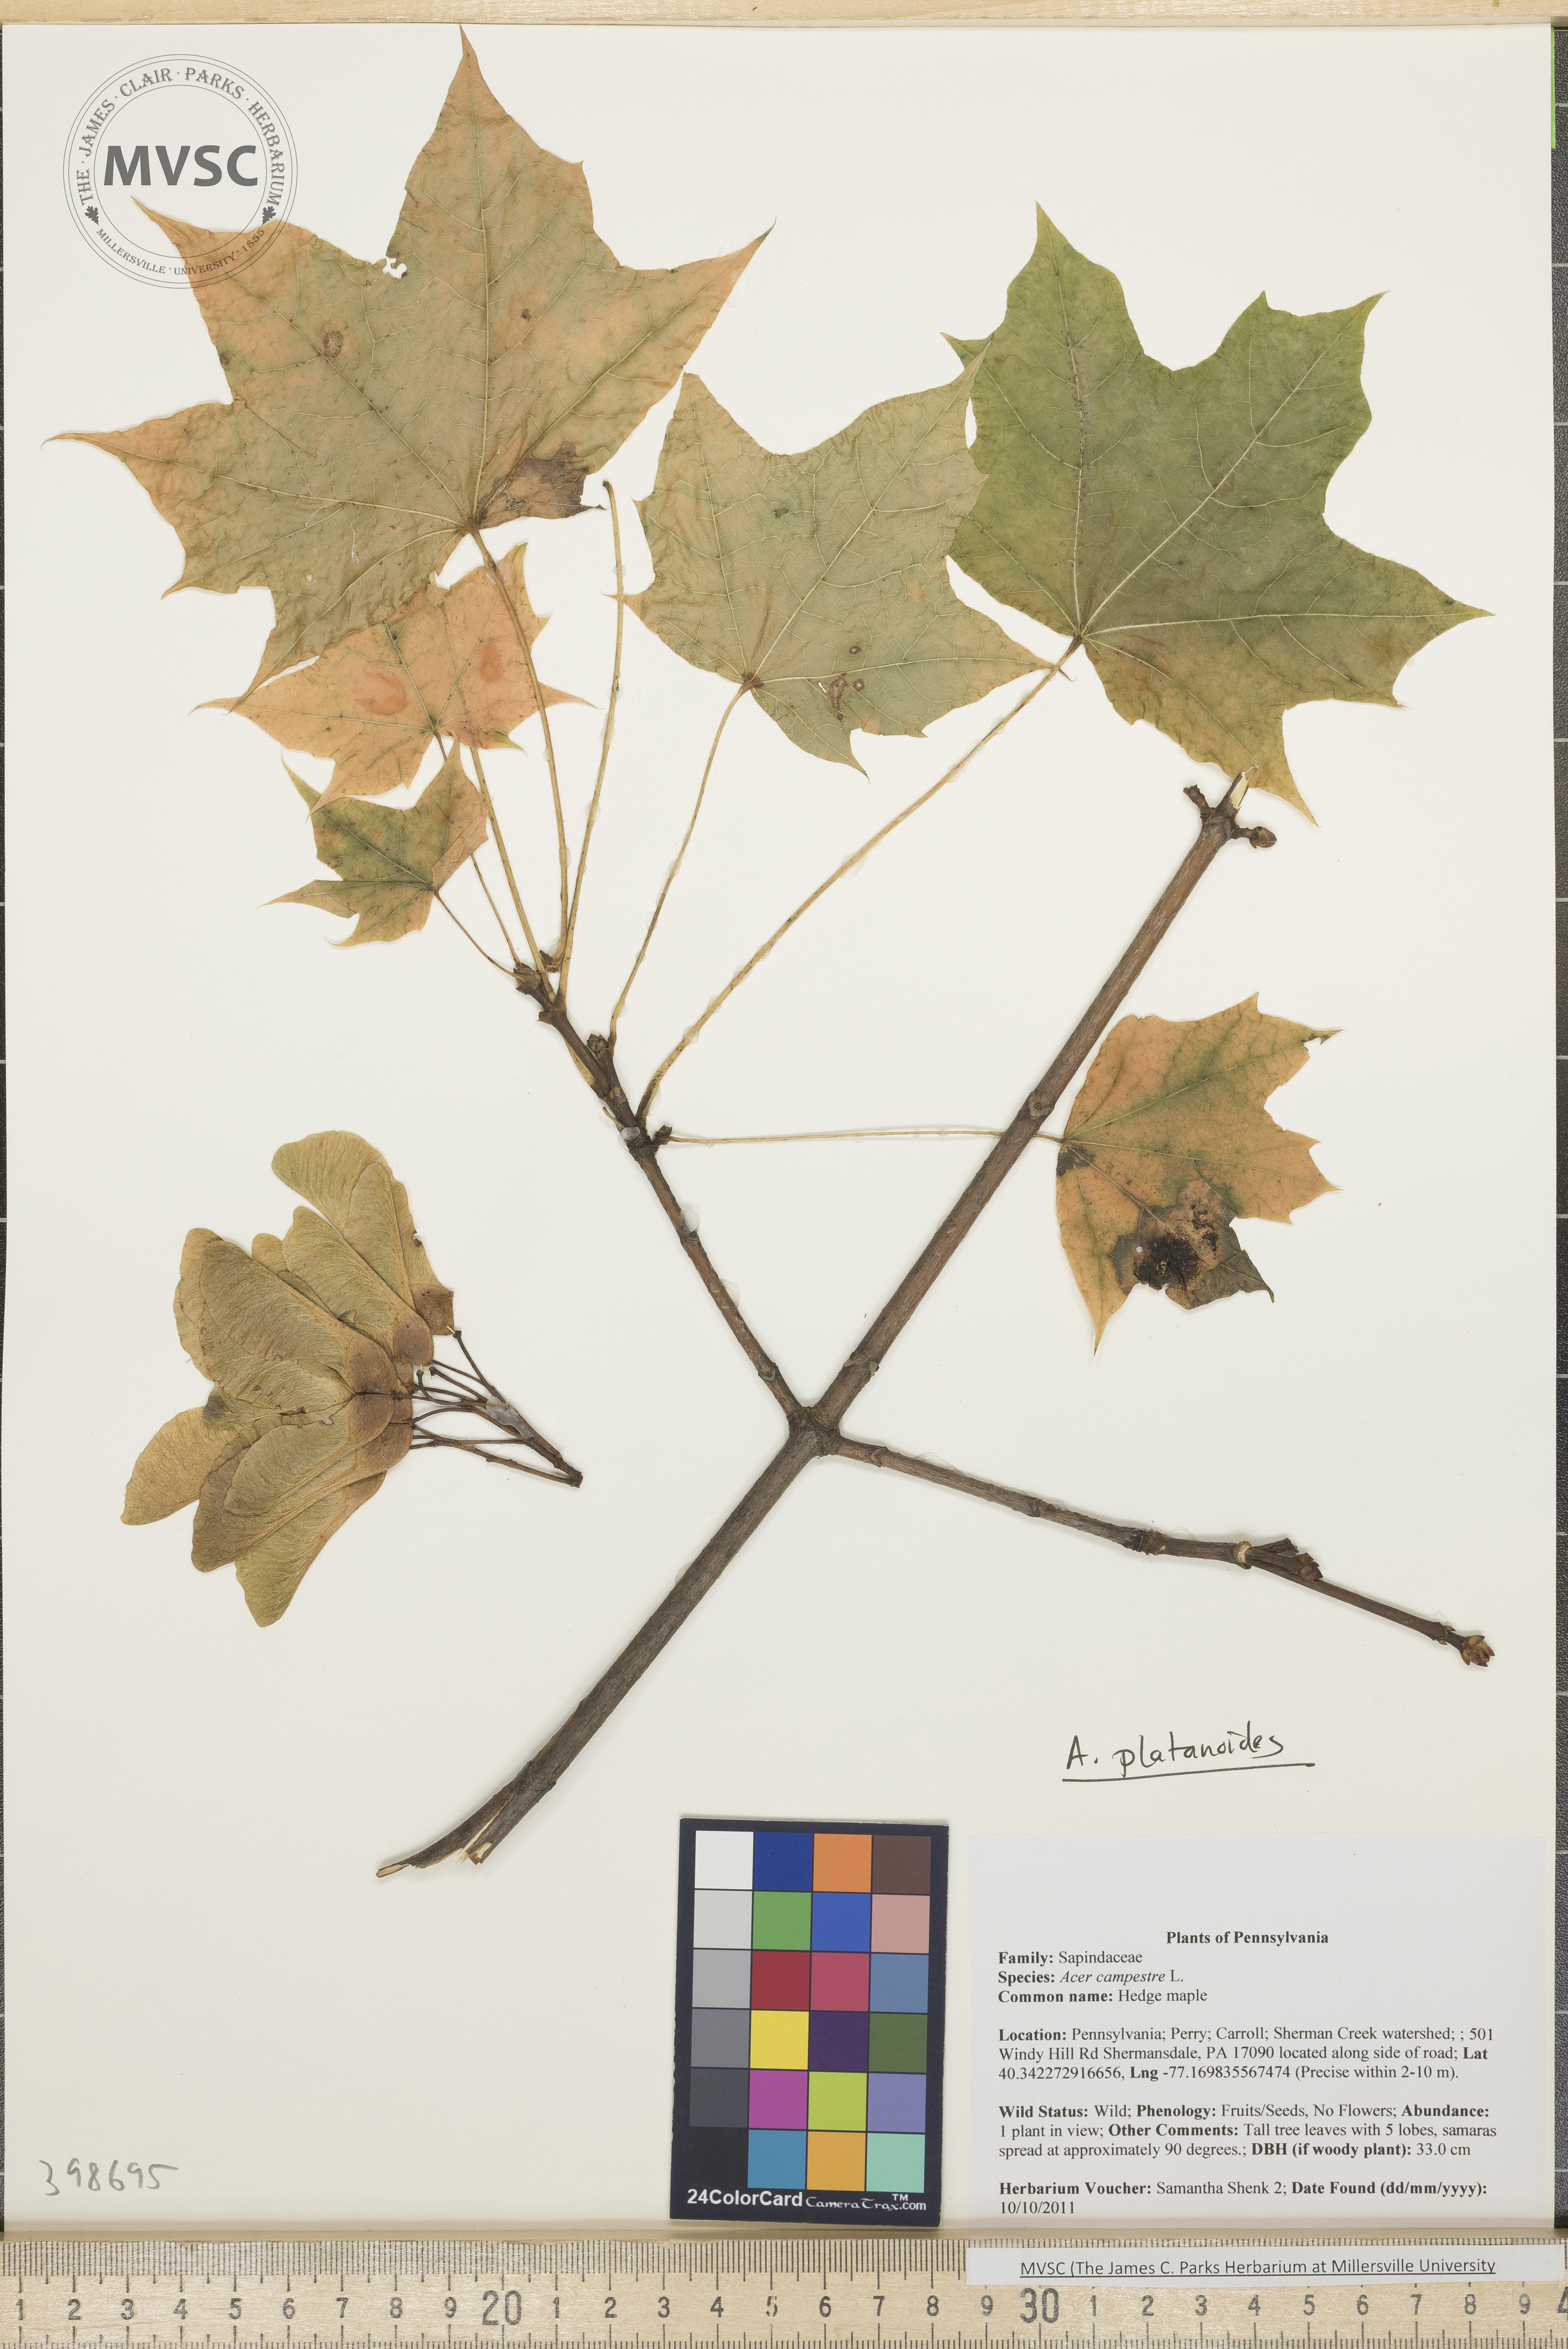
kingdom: Plantae
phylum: Tracheophyta
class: Magnoliopsida
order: Sapindales
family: Sapindaceae
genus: Acer
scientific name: Acer platanoides
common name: Norway maple
